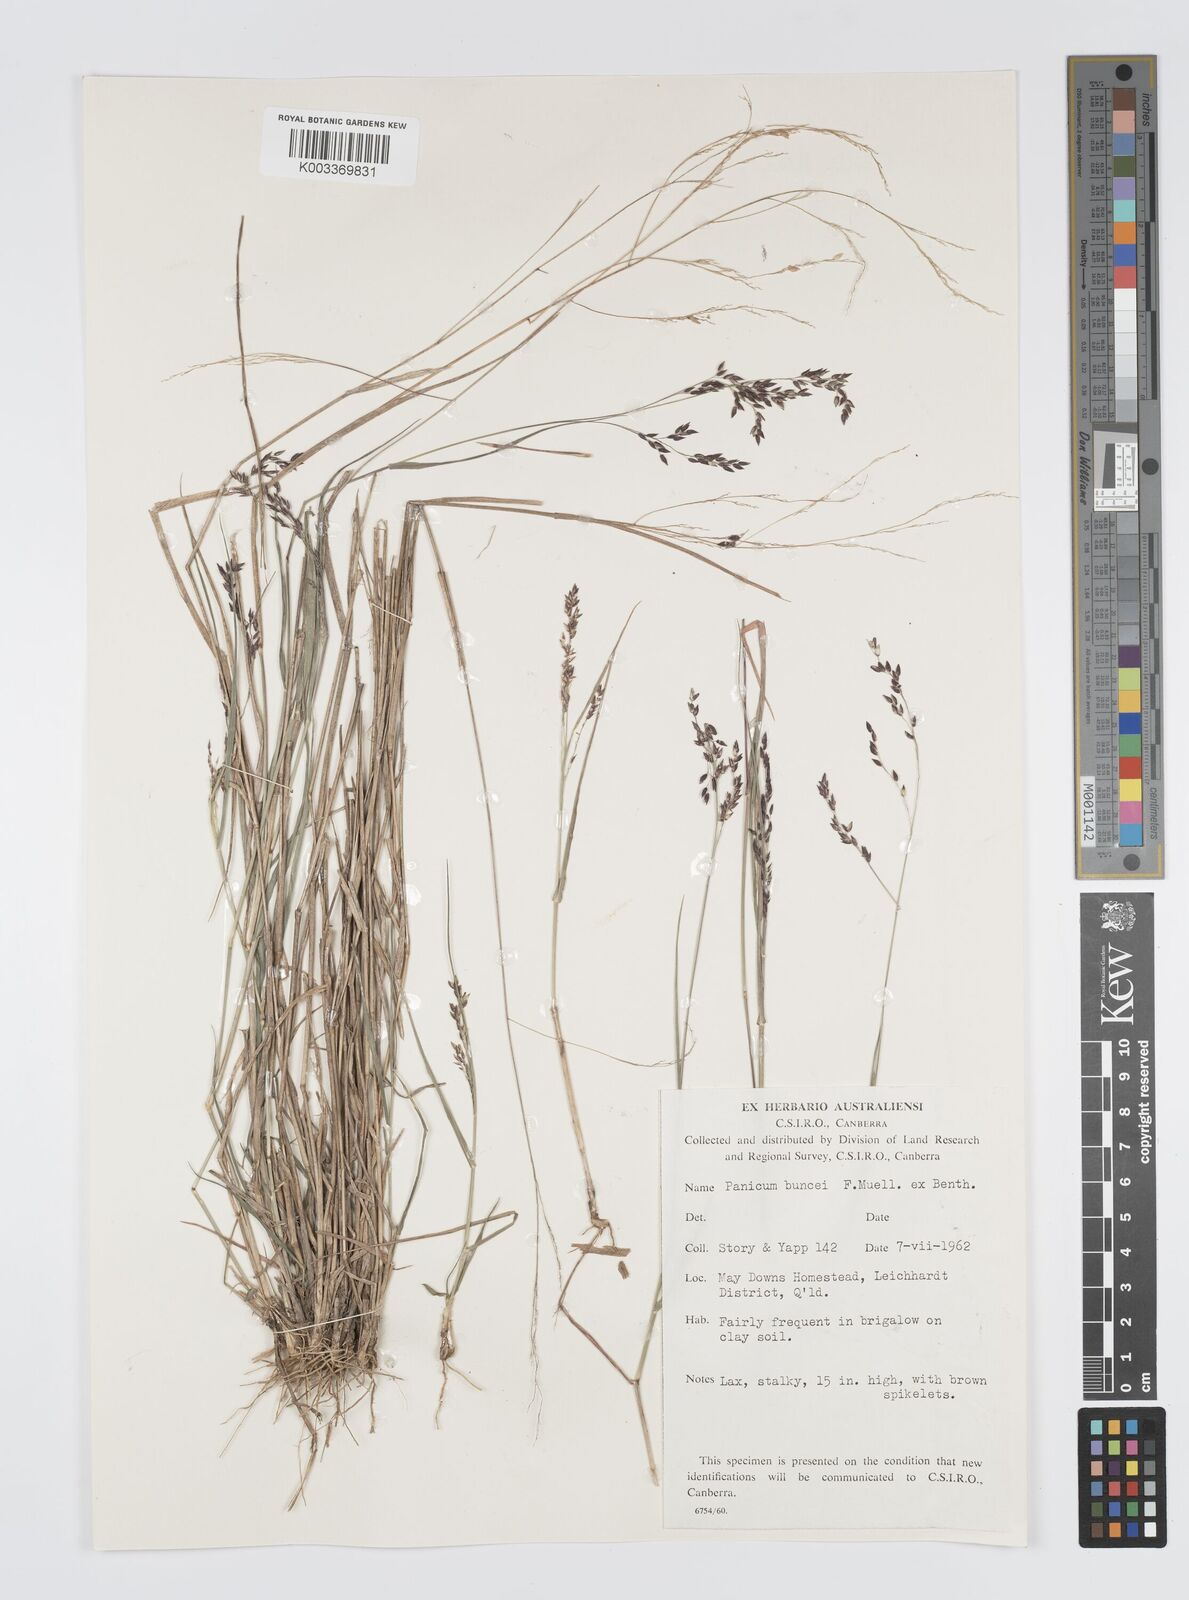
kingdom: Plantae
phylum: Tracheophyta
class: Liliopsida
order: Poales
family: Poaceae
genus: Panicum
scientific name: Panicum buncei
